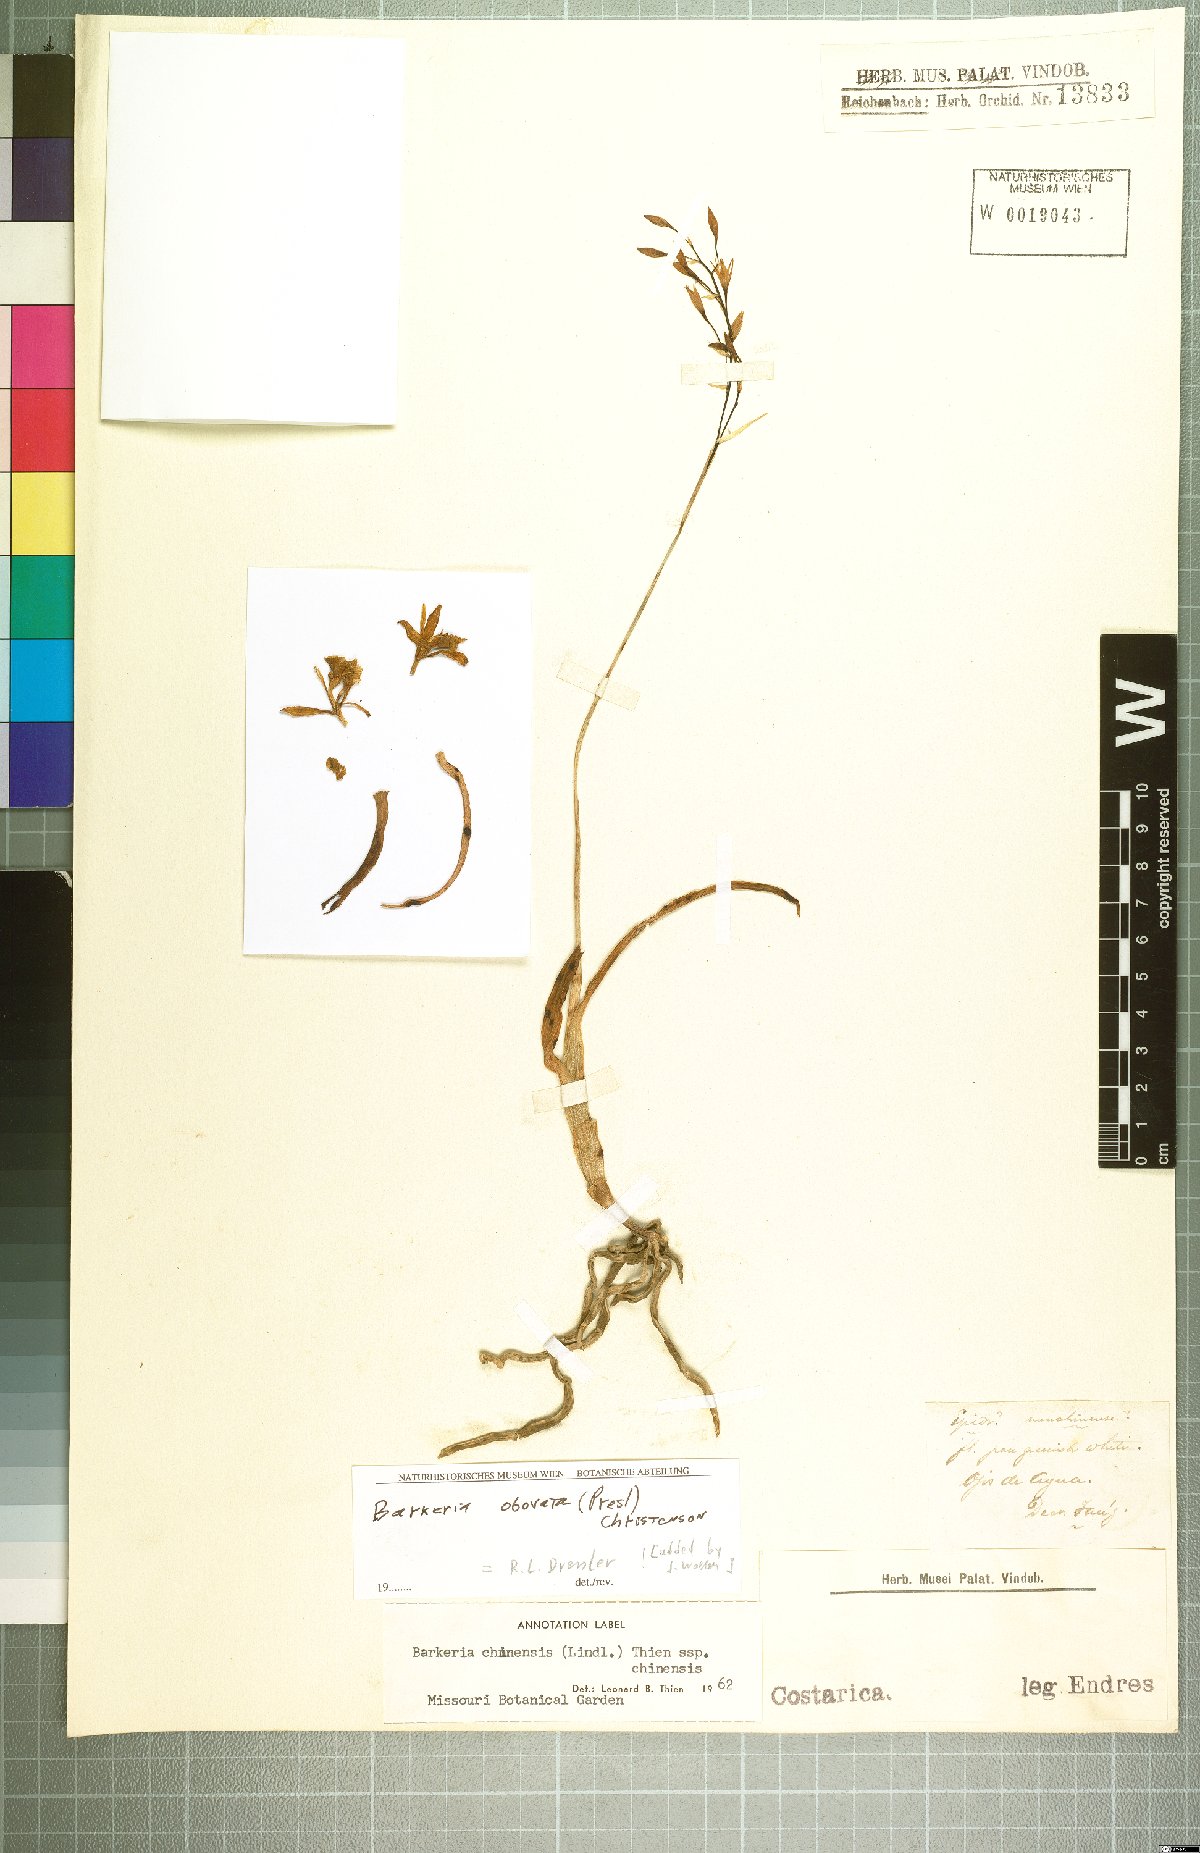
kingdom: Plantae
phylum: Tracheophyta
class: Liliopsida
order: Asparagales
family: Orchidaceae
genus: Barkeria
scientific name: Barkeria obovata
